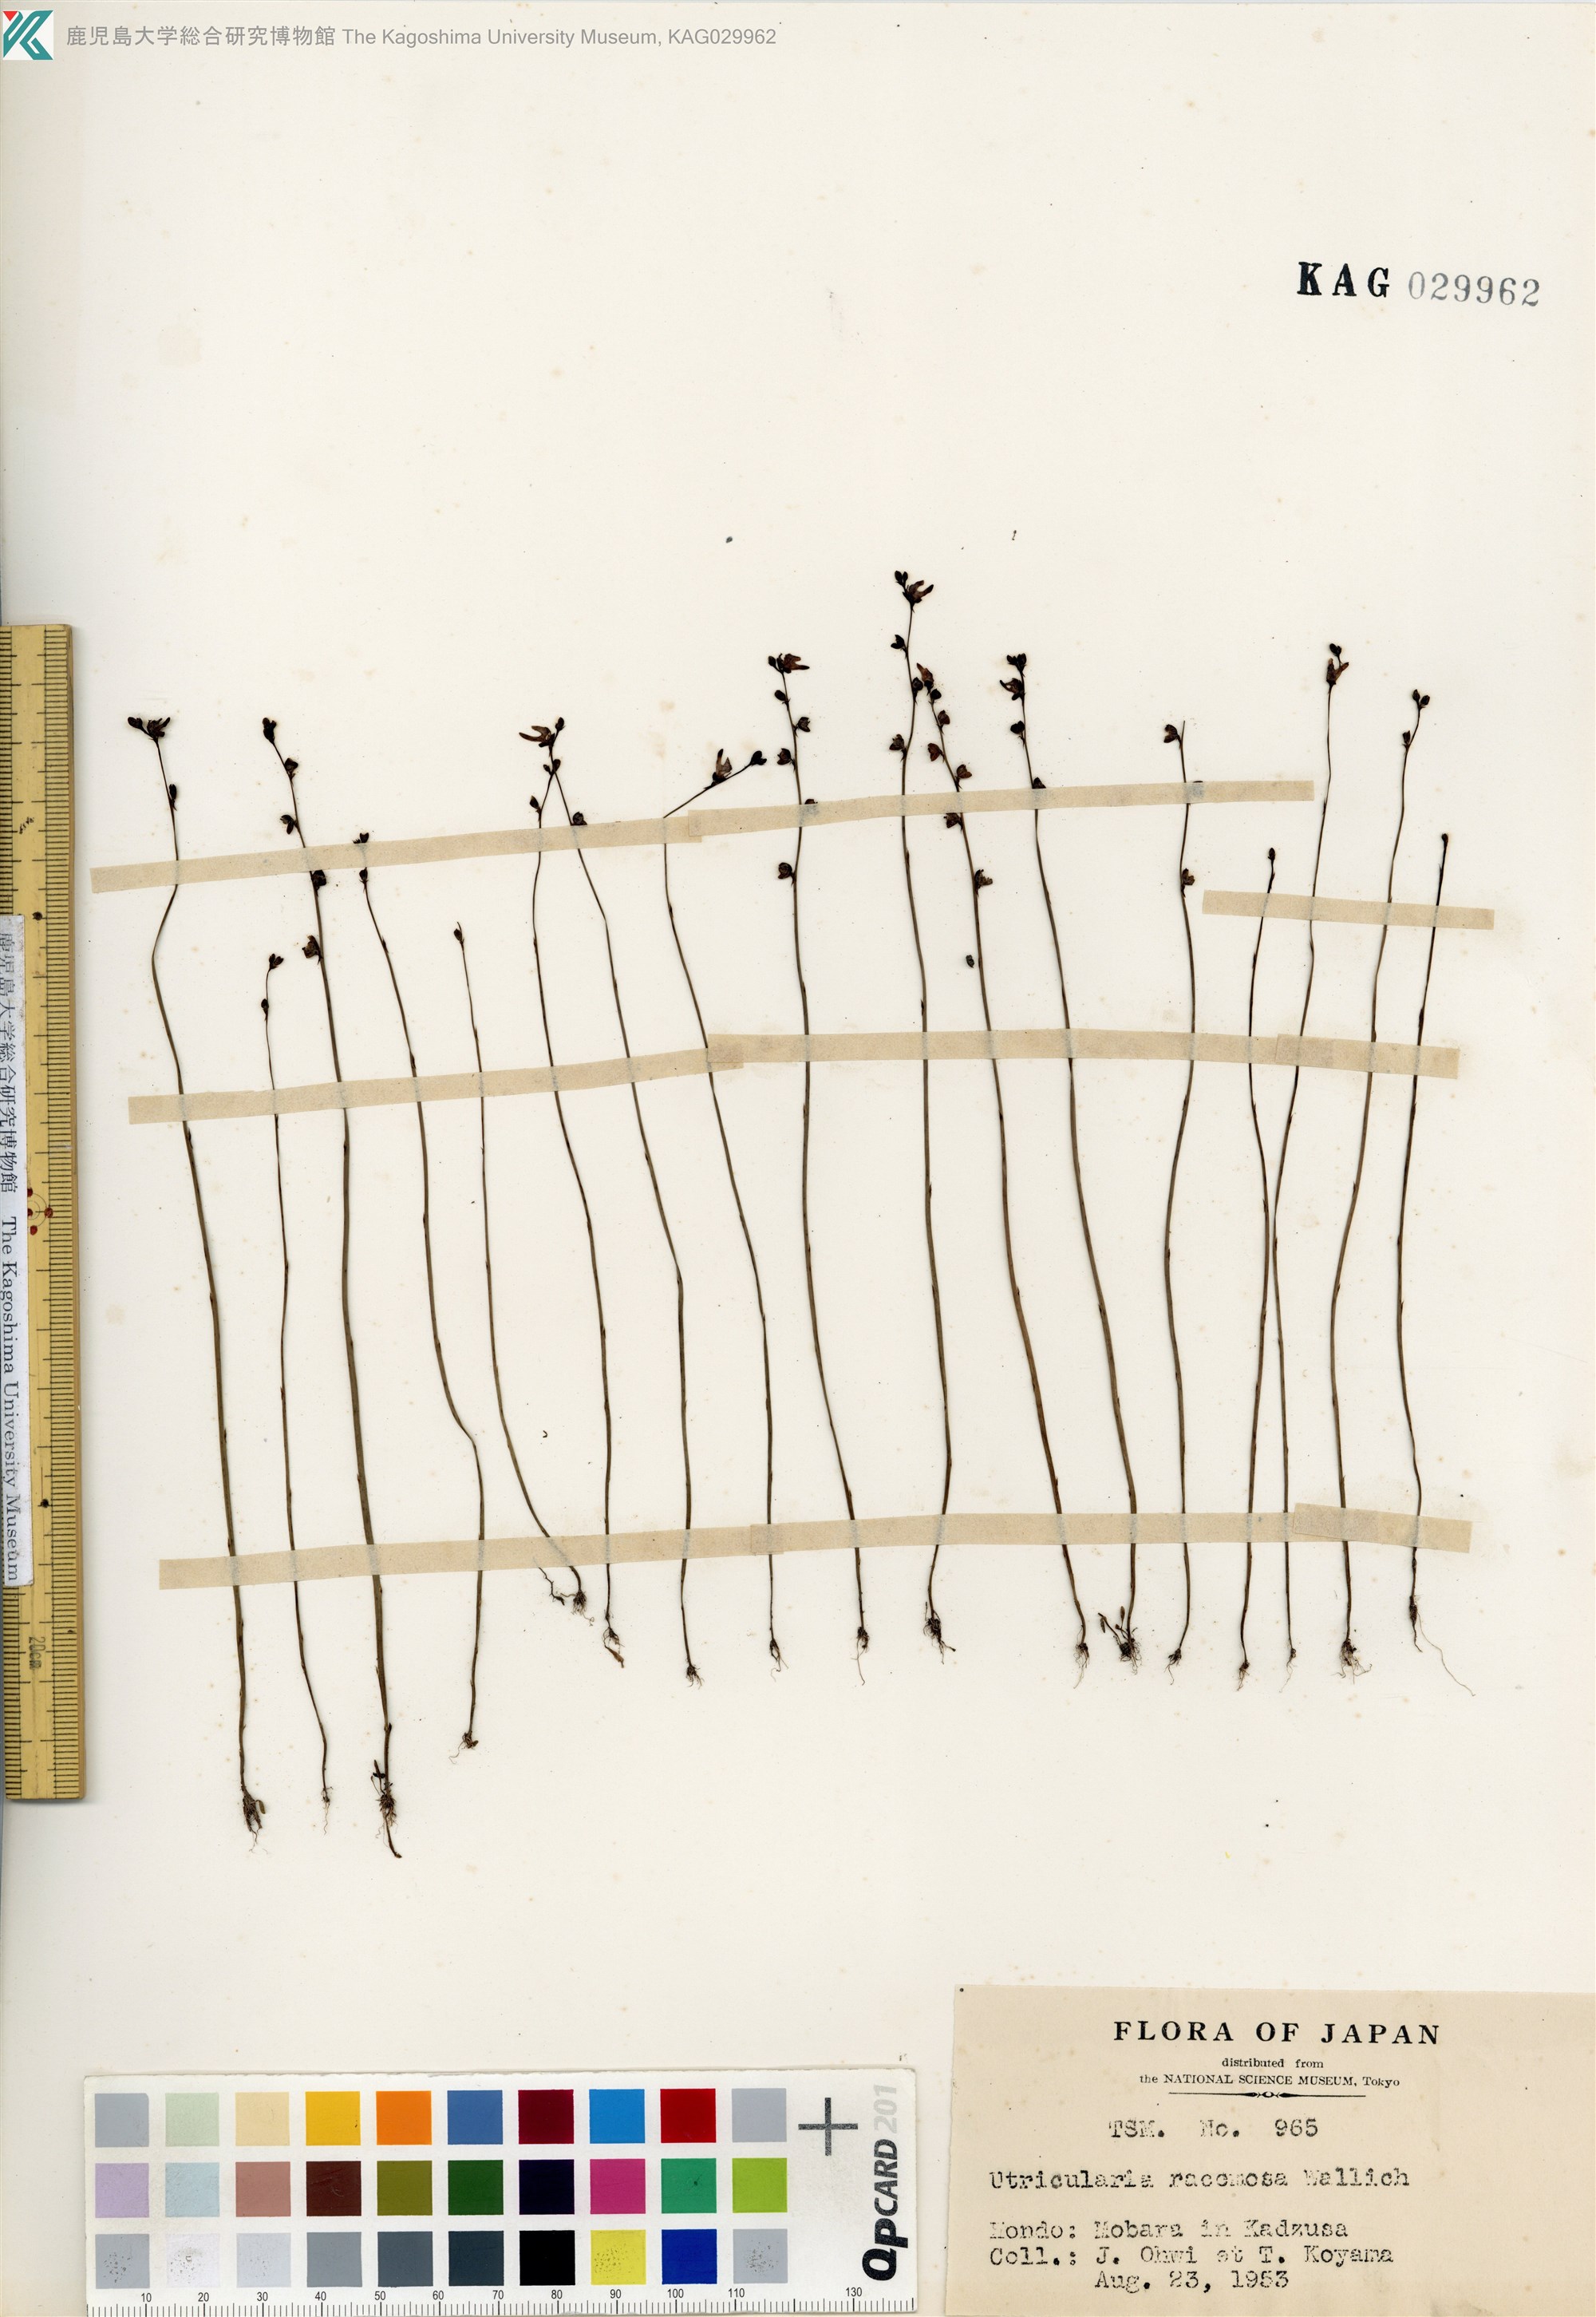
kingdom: Plantae
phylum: Tracheophyta
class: Magnoliopsida
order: Lamiales
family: Lentibulariaceae
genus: Utricularia
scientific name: Utricularia caerulea
